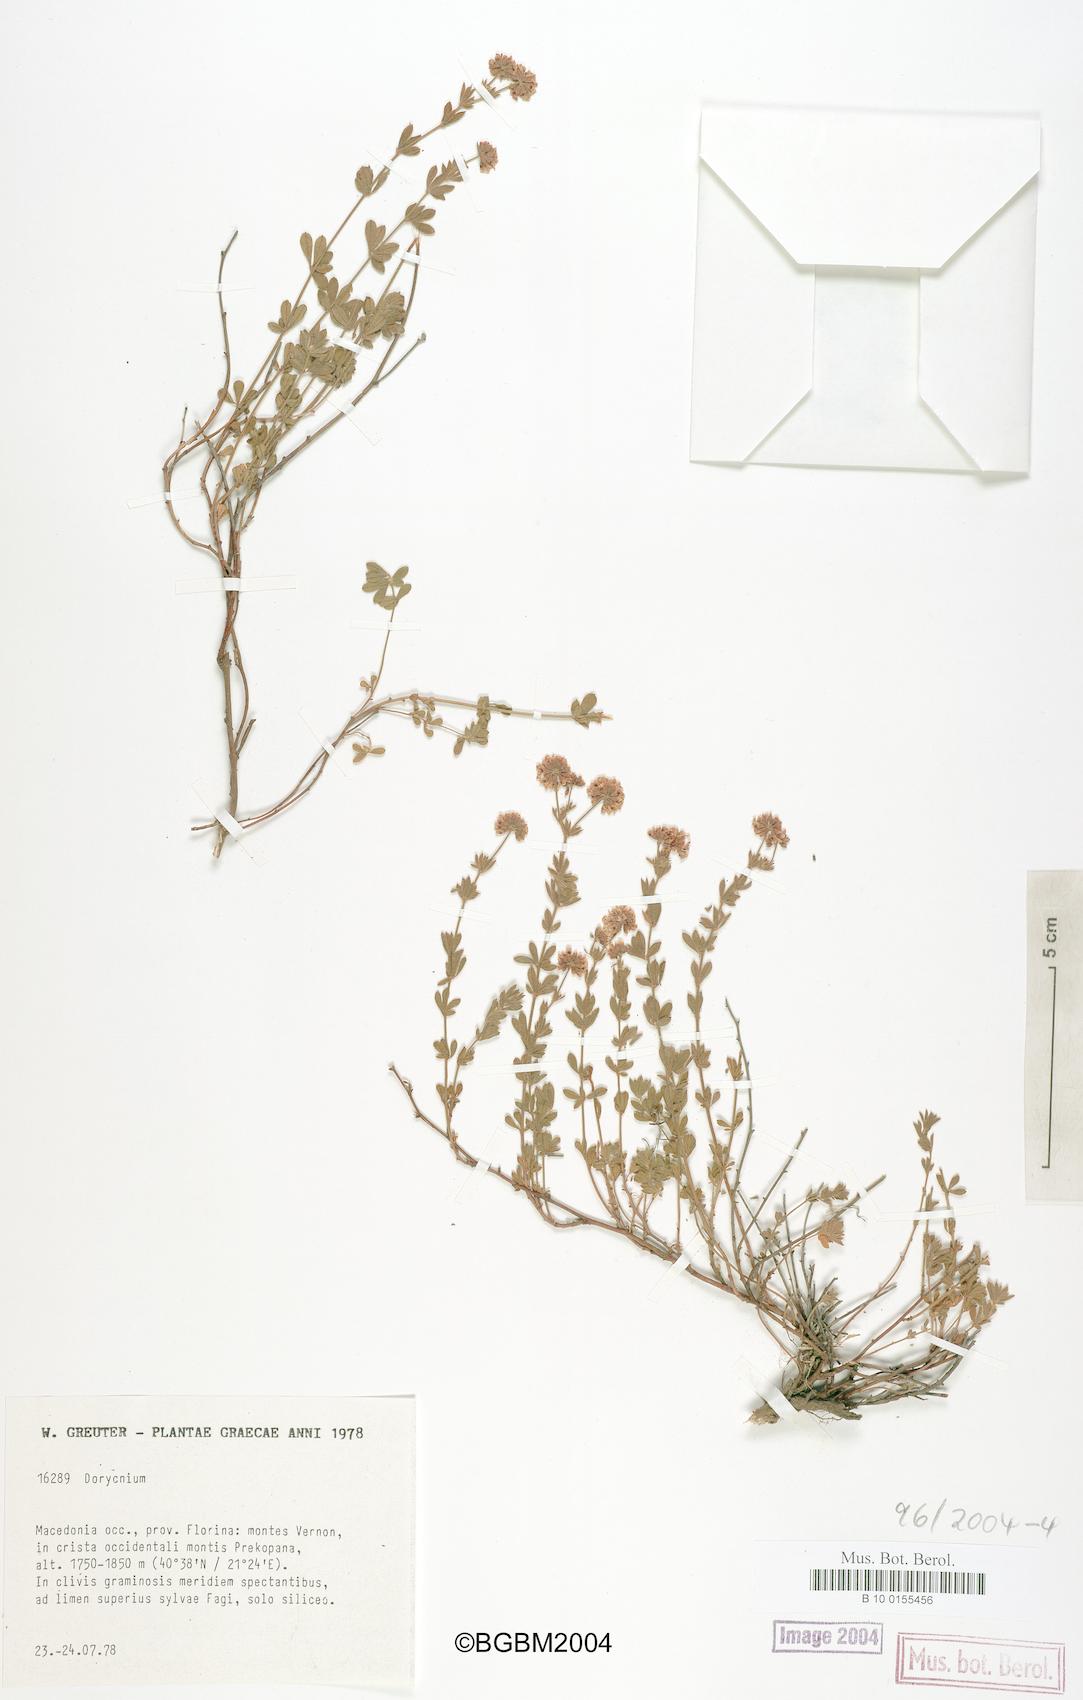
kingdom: Plantae
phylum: Tracheophyta
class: Magnoliopsida
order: Fabales
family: Fabaceae
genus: Lotus
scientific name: Lotus
